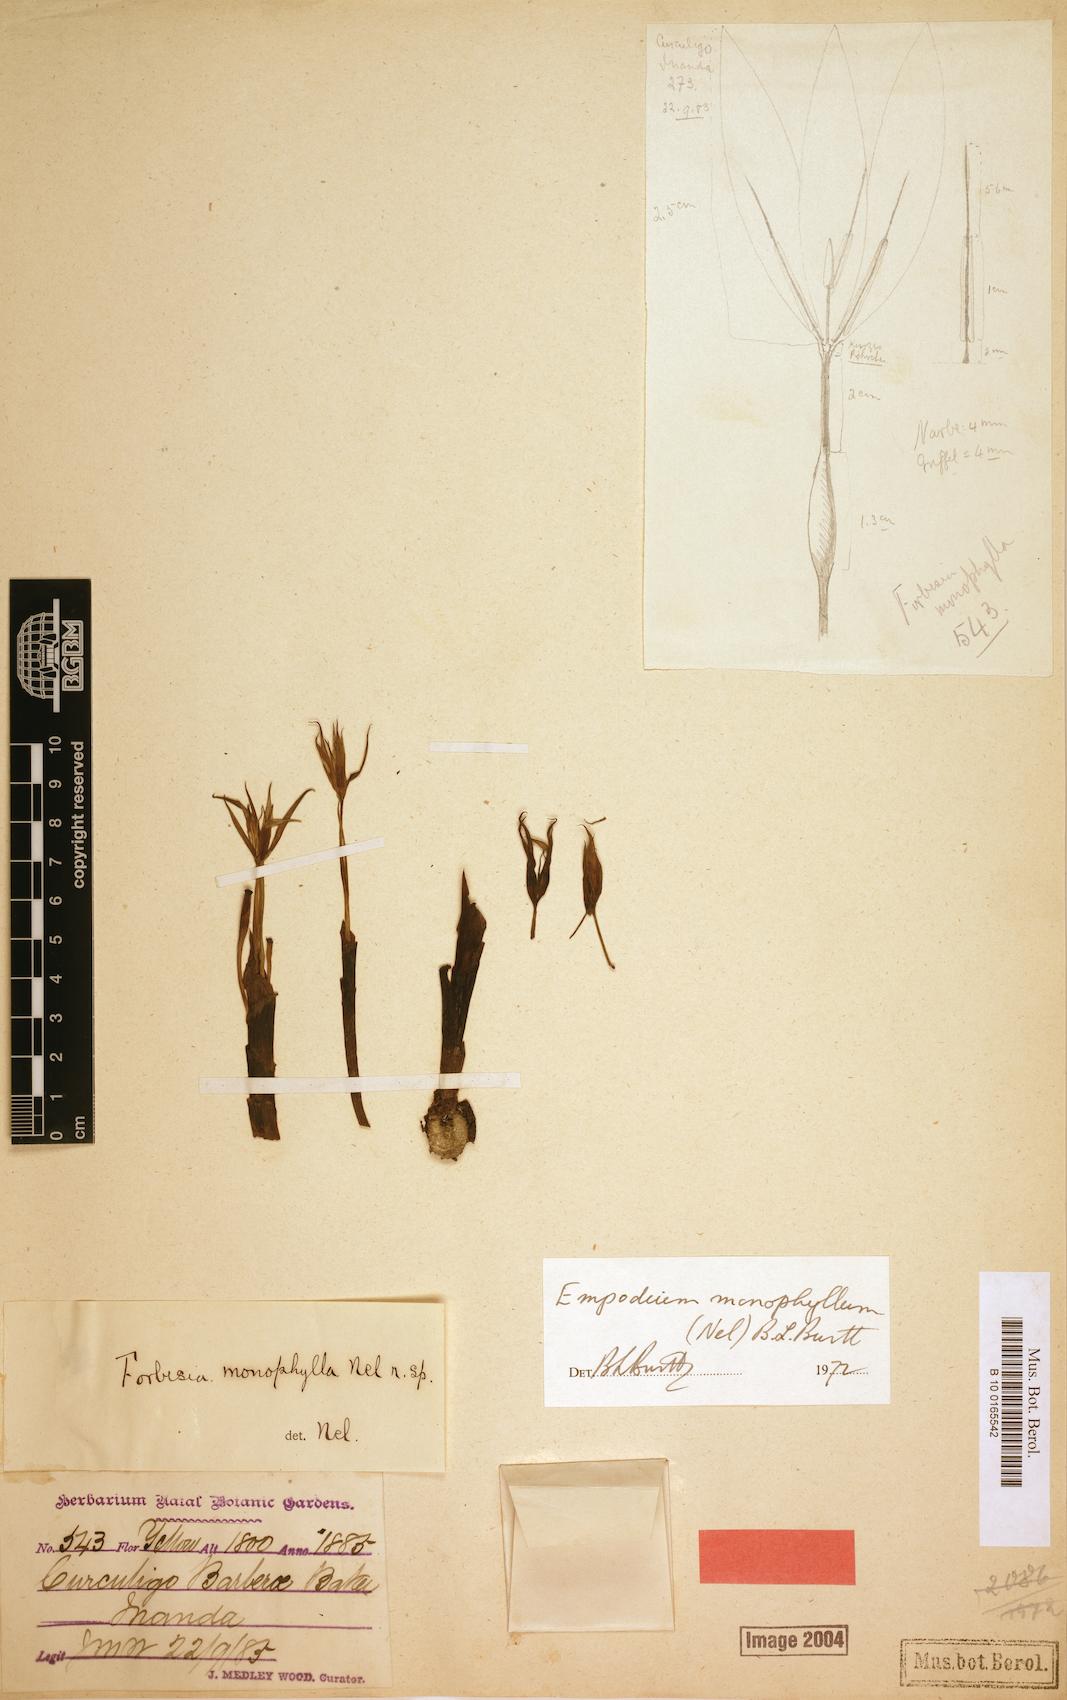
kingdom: Plantae
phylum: Tracheophyta
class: Liliopsida
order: Asparagales
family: Hypoxidaceae
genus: Empodium
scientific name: Empodium monophyllum
